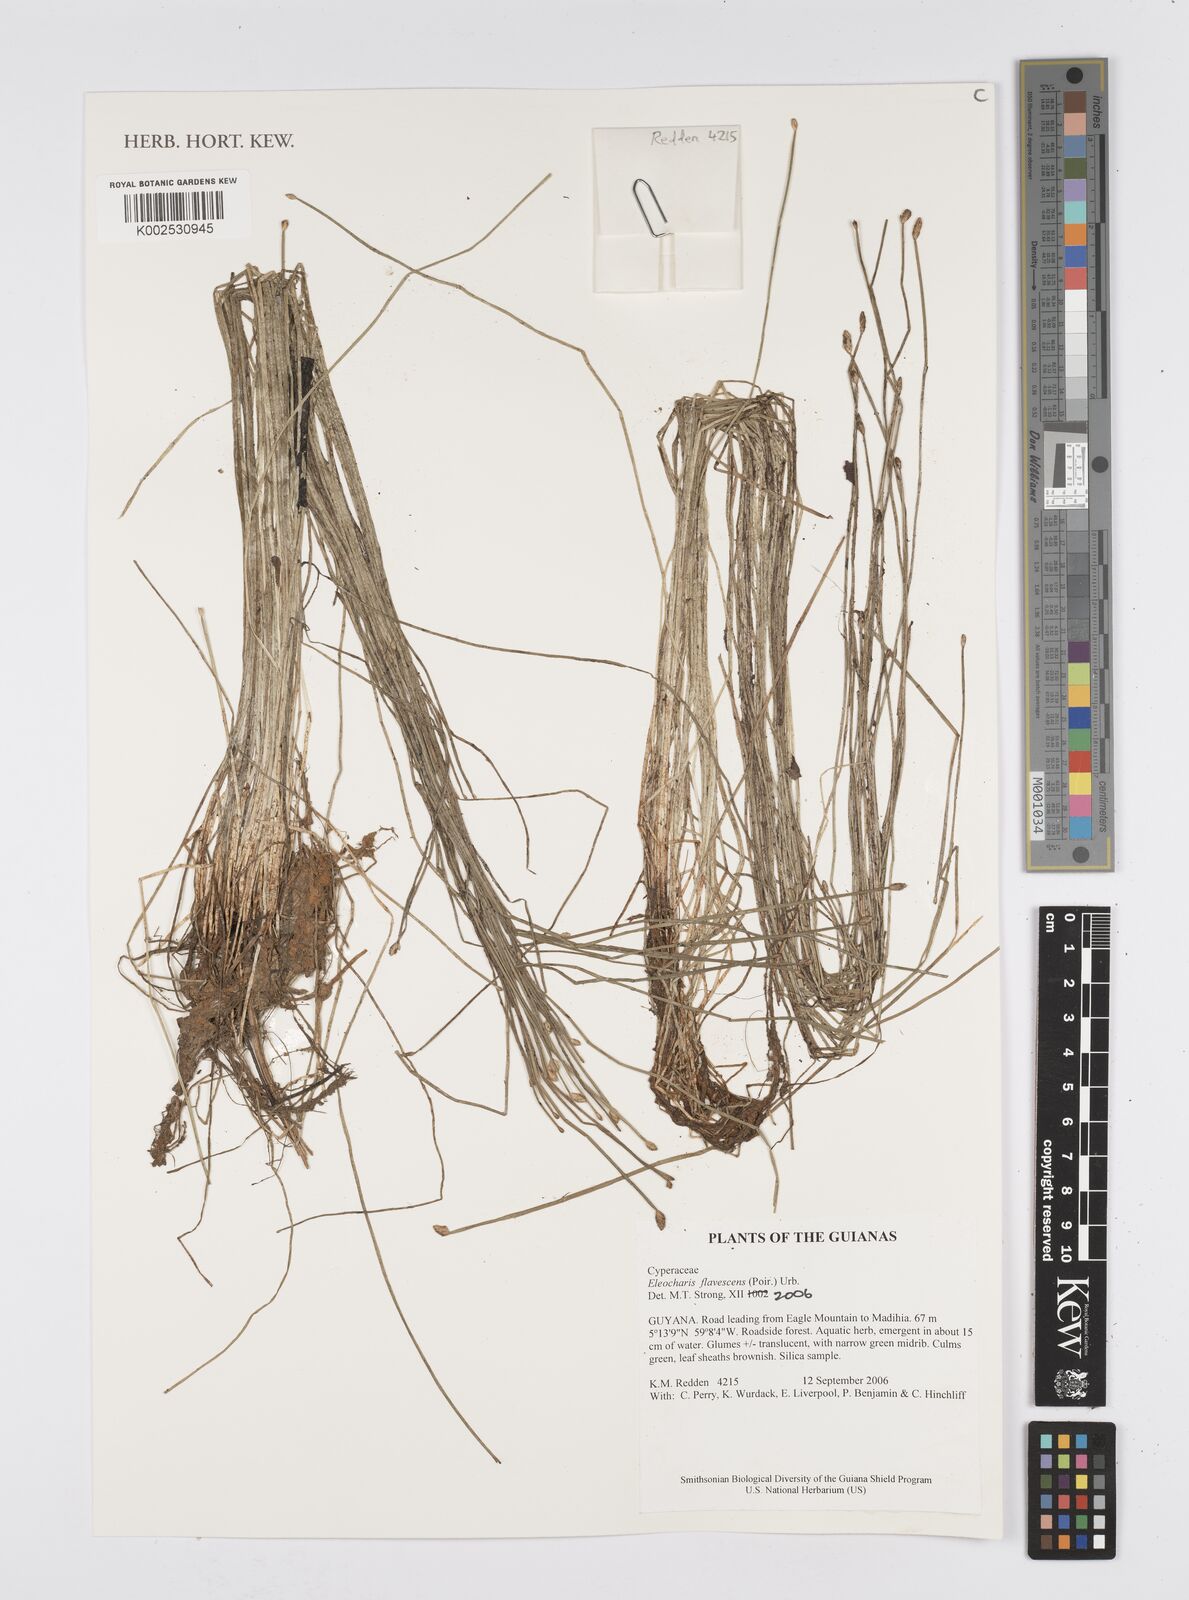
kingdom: Plantae
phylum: Tracheophyta
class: Liliopsida
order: Poales
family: Cyperaceae
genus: Eleocharis
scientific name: Eleocharis flavescens
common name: Yellow spikerush
